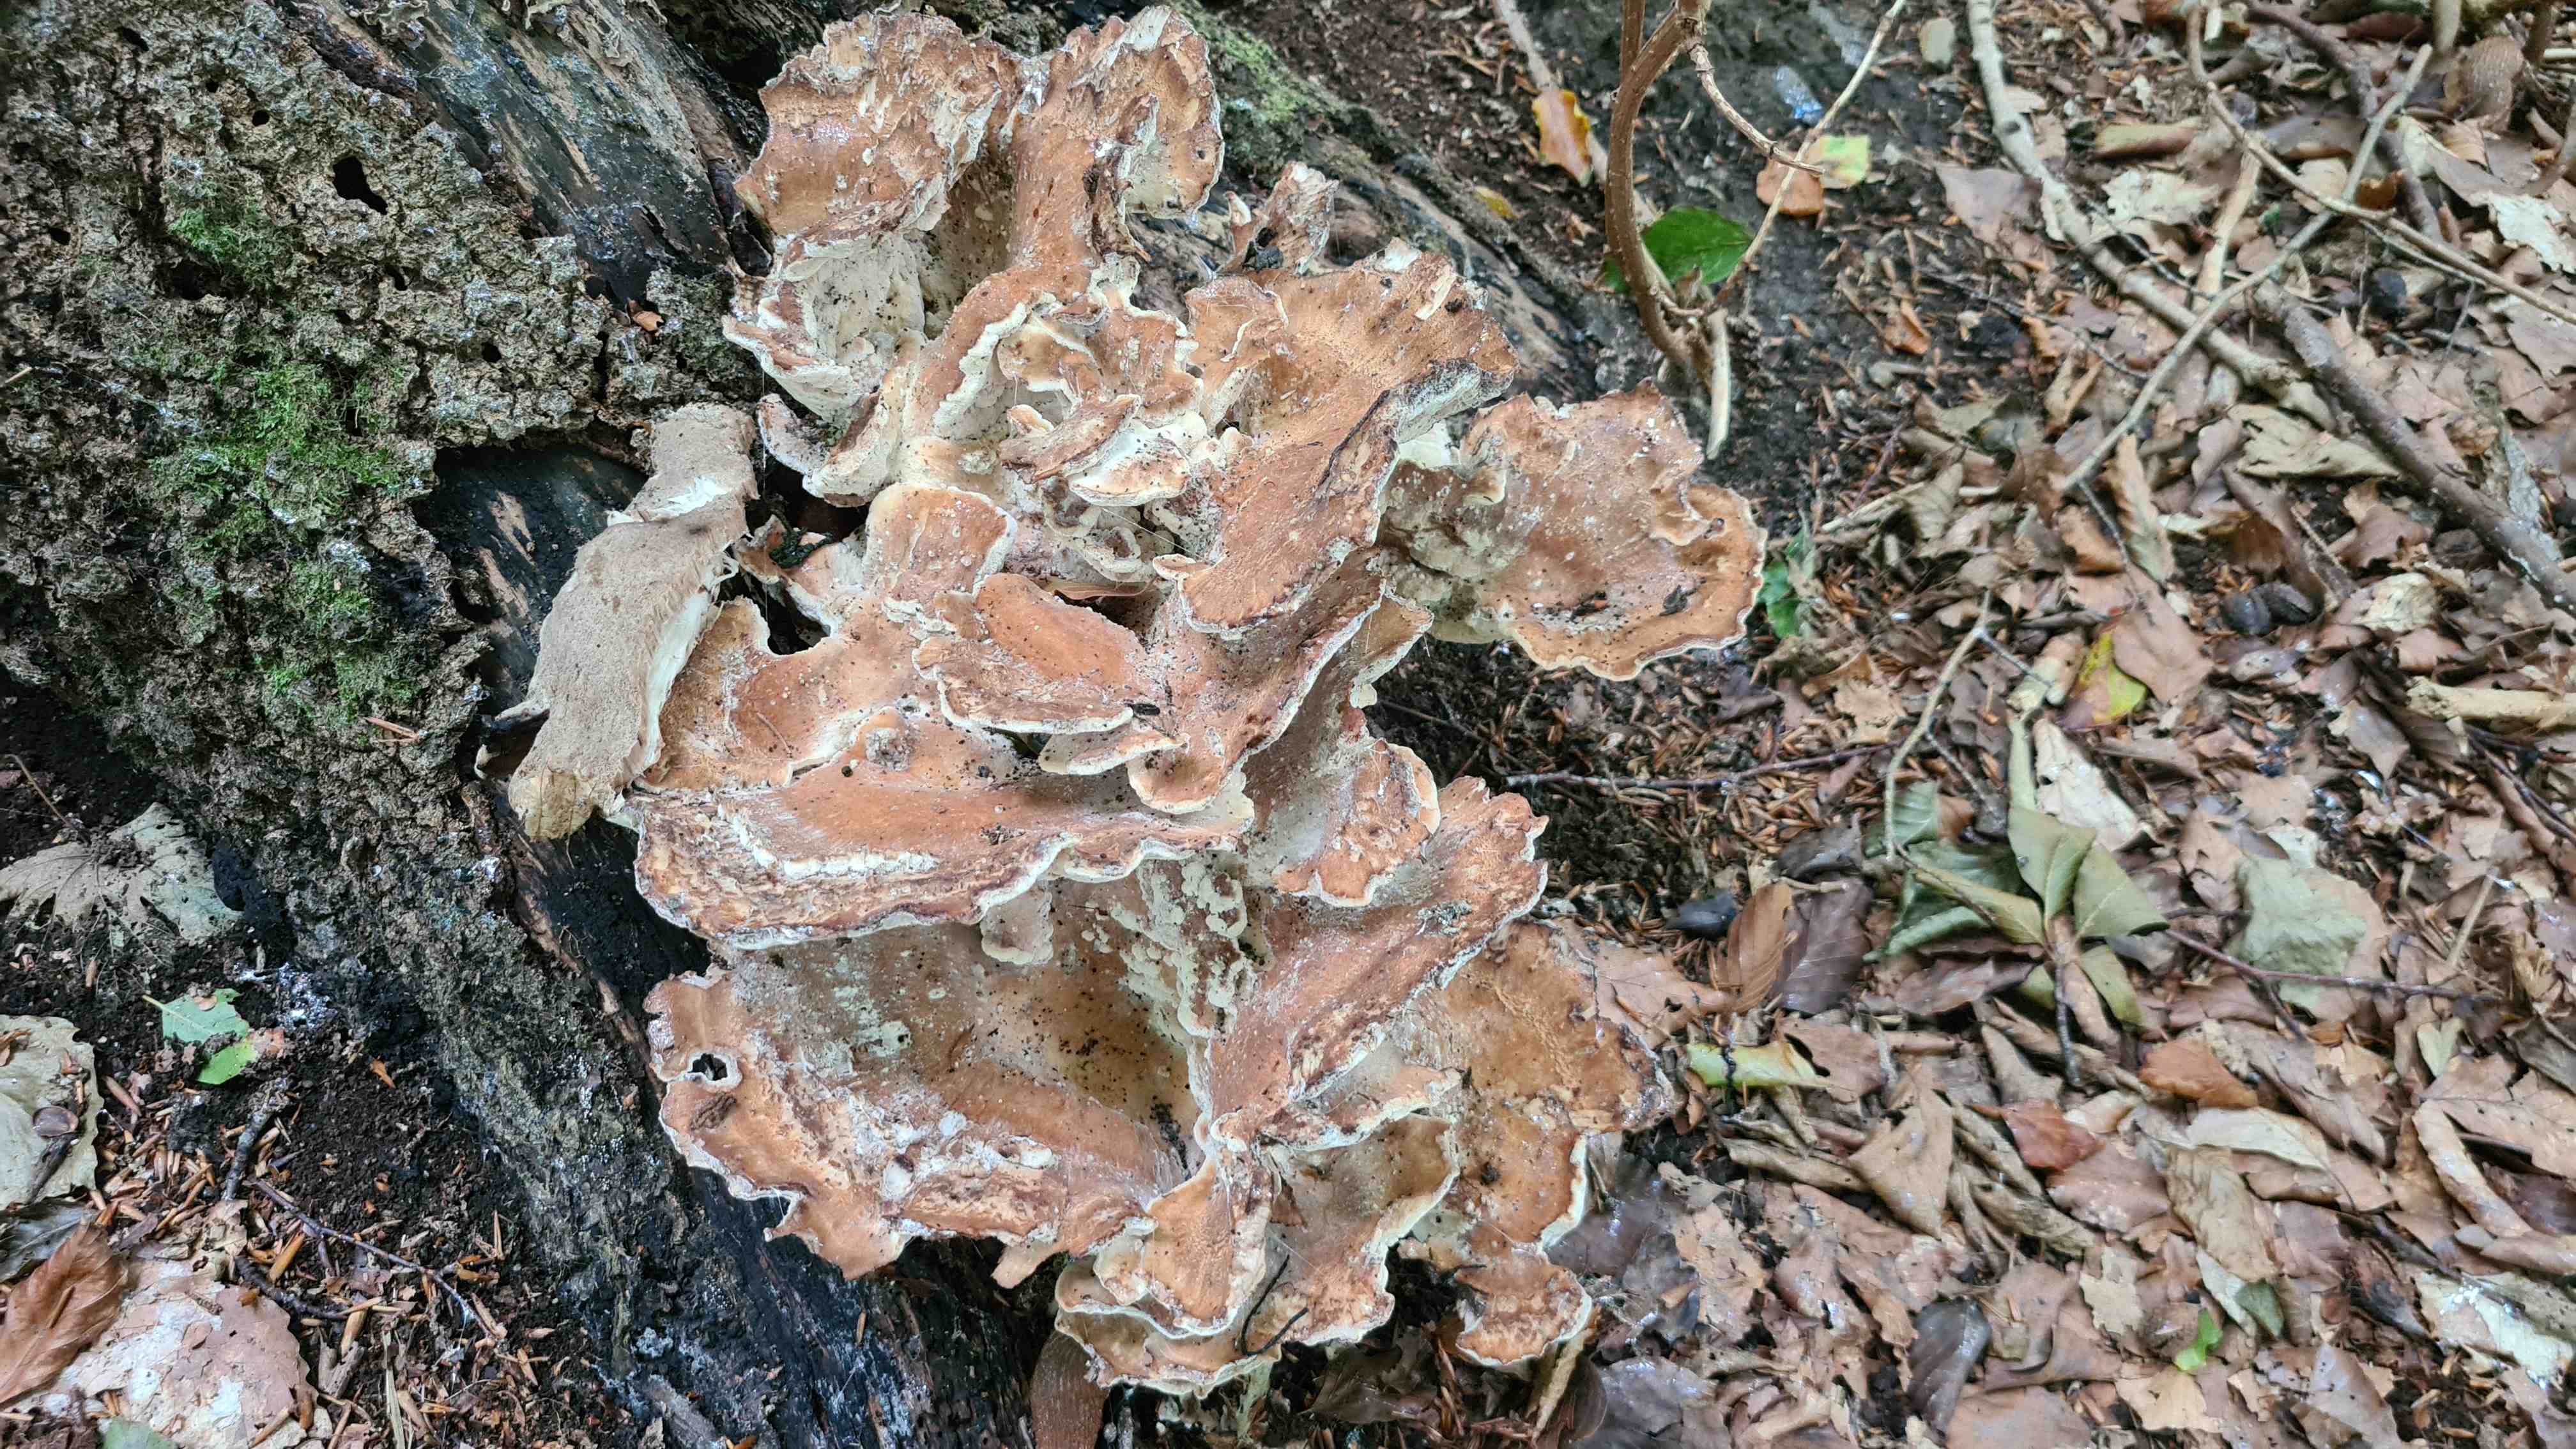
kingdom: Fungi
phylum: Basidiomycota
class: Agaricomycetes
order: Polyporales
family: Meripilaceae
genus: Meripilus
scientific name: Meripilus giganteus
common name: kæmpeporesvamp
